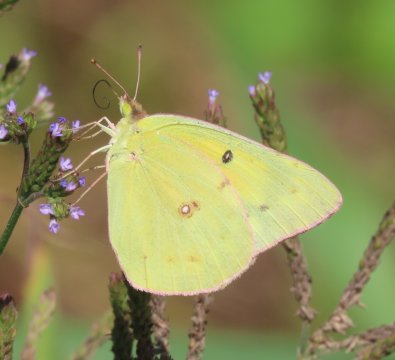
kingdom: Animalia
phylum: Arthropoda
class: Insecta
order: Lepidoptera
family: Pieridae
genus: Colias
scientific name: Colias eurytheme
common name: Orange Sulphur
